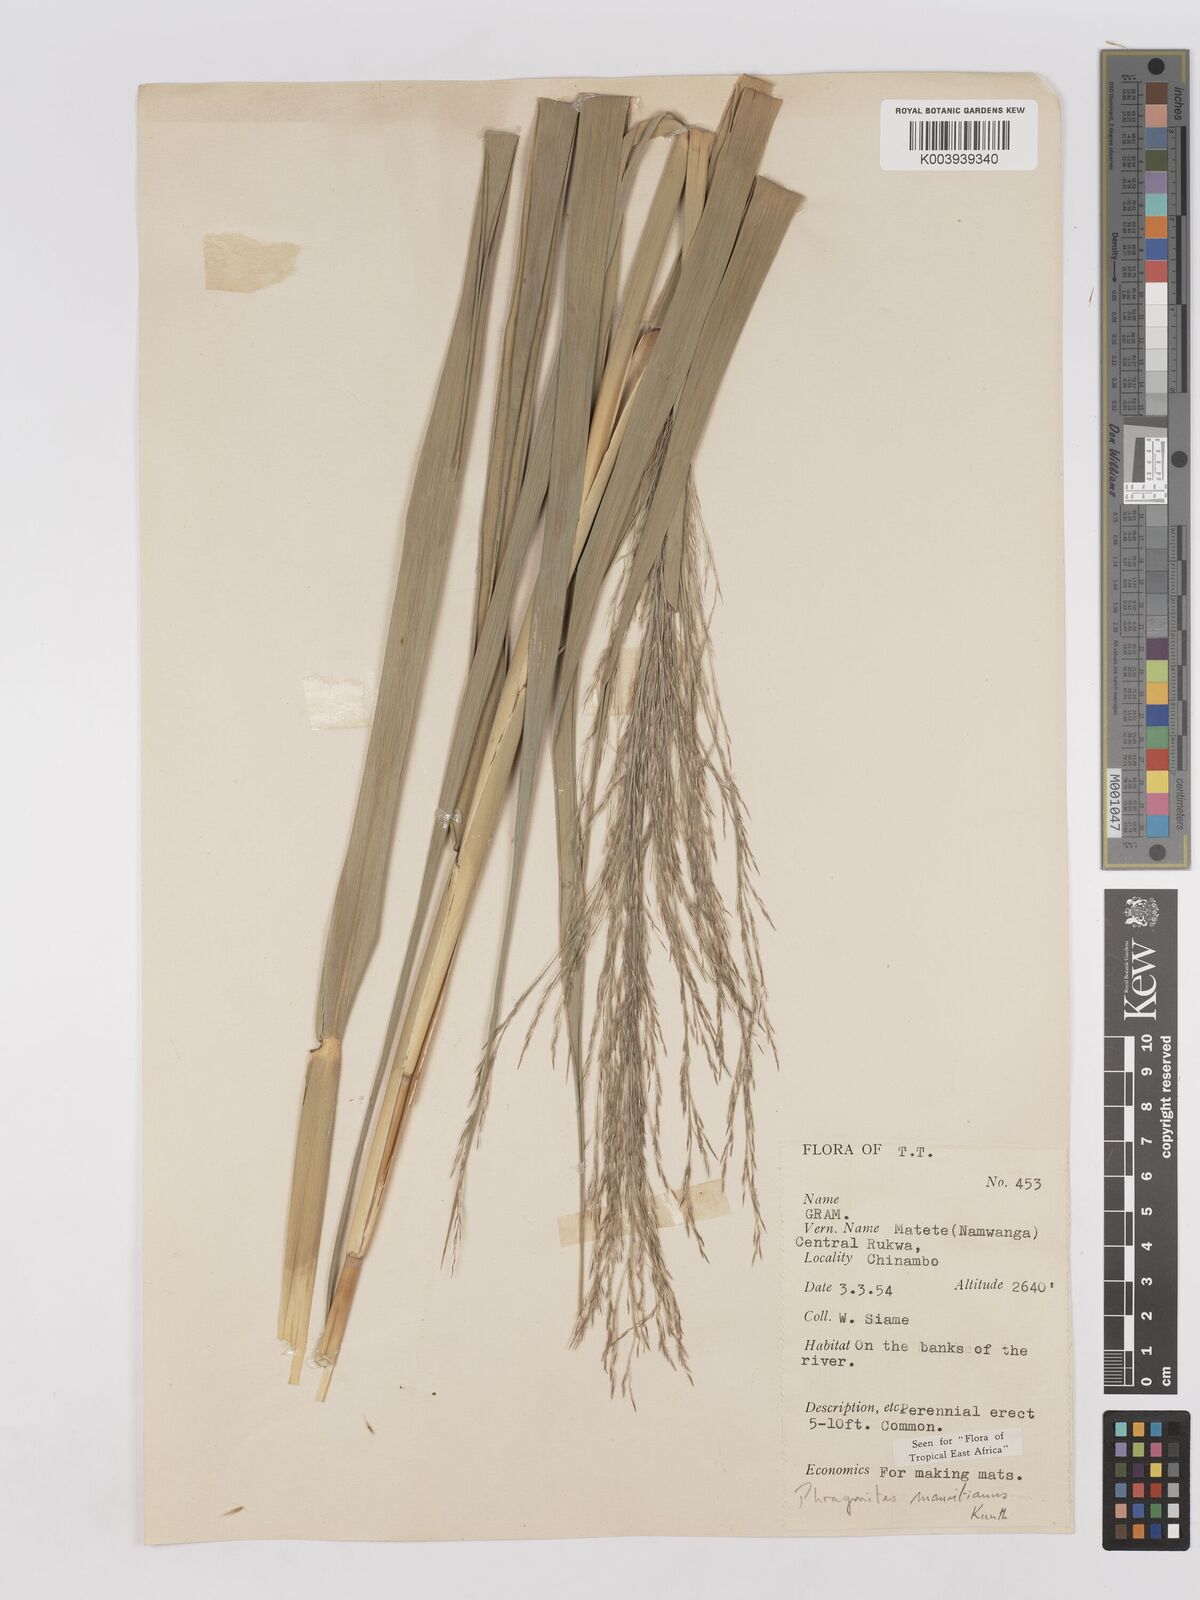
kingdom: Plantae
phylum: Tracheophyta
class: Liliopsida
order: Poales
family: Poaceae
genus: Phragmites
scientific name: Phragmites mauritianus
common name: Reed grass
